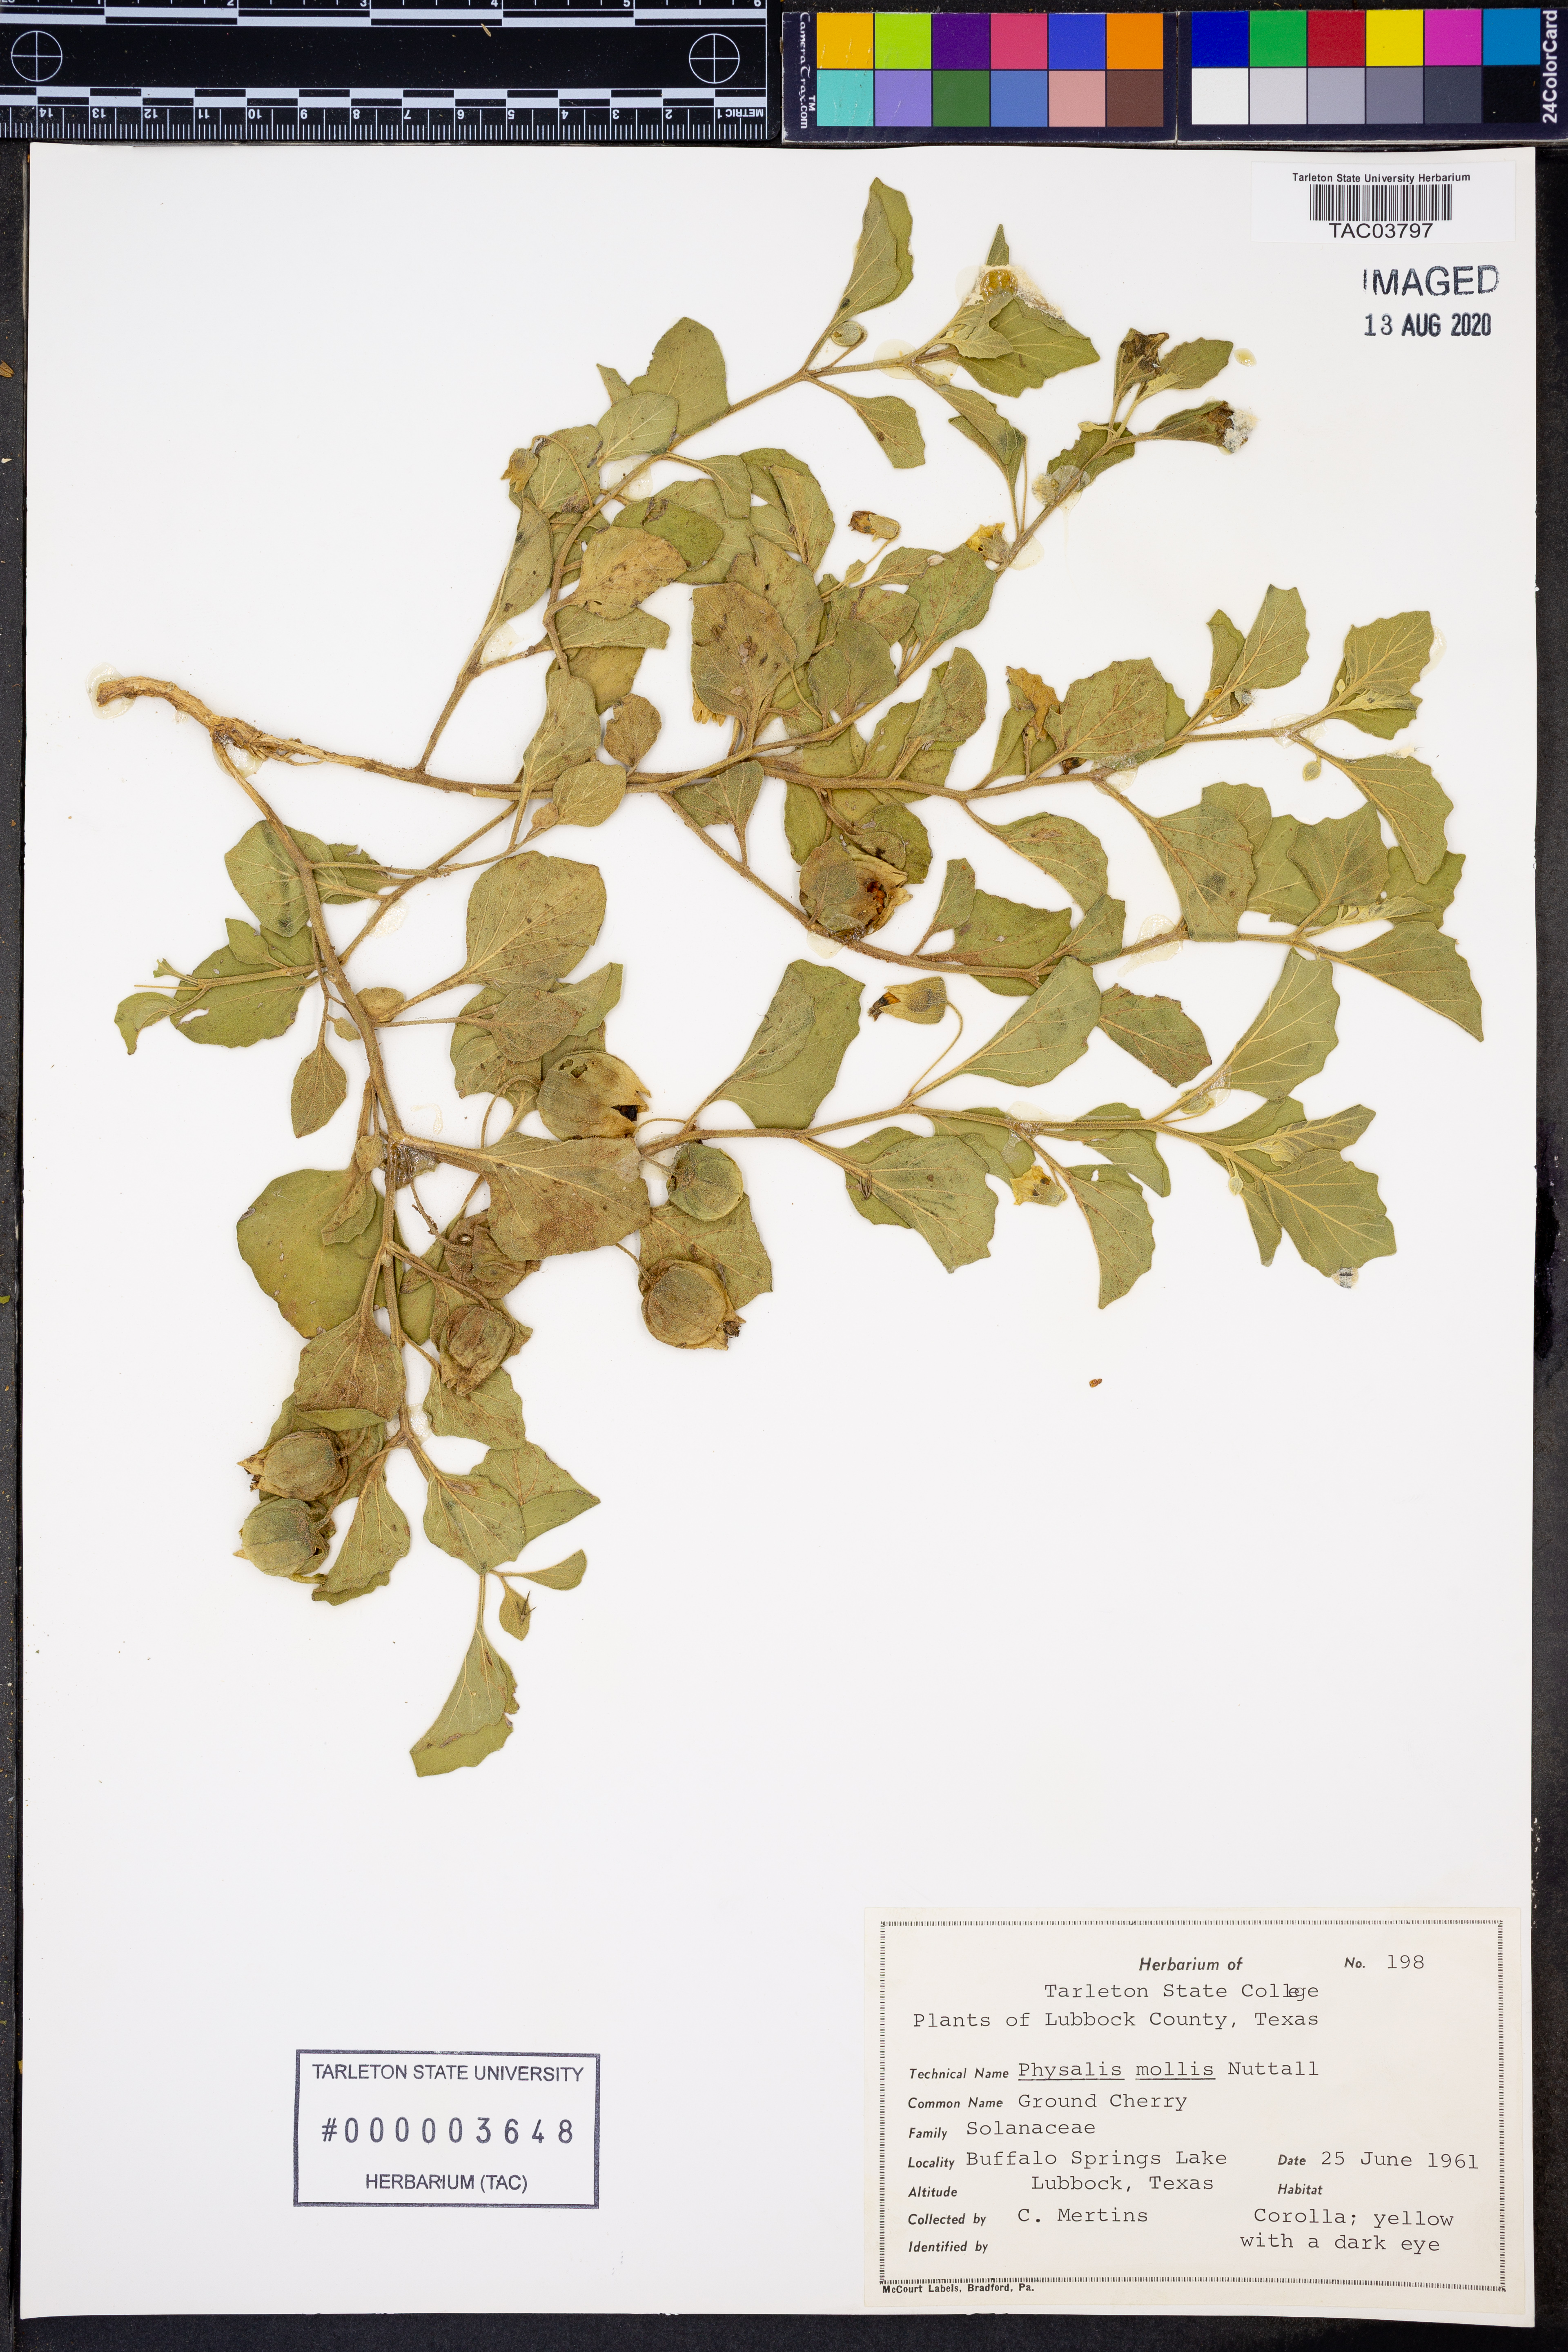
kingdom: Plantae
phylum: Tracheophyta
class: Magnoliopsida
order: Solanales
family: Solanaceae
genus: Physalis
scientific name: Physalis mollis
